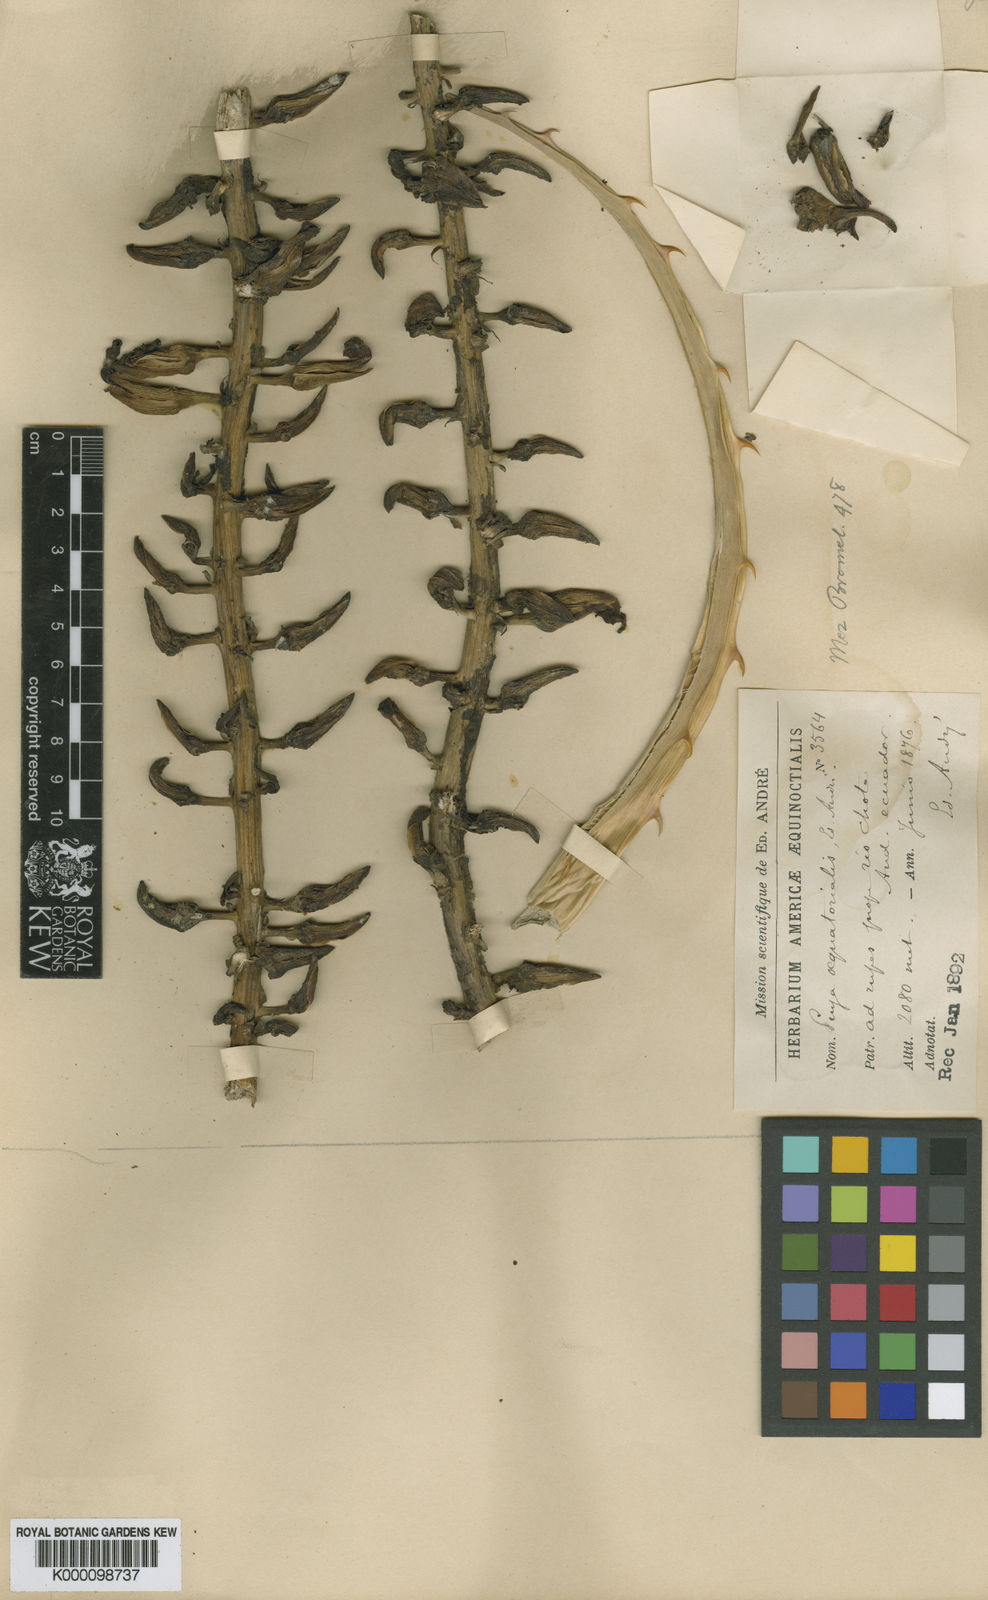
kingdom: Plantae
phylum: Tracheophyta
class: Liliopsida
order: Poales
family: Bromeliaceae
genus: Puya
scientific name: Puya
